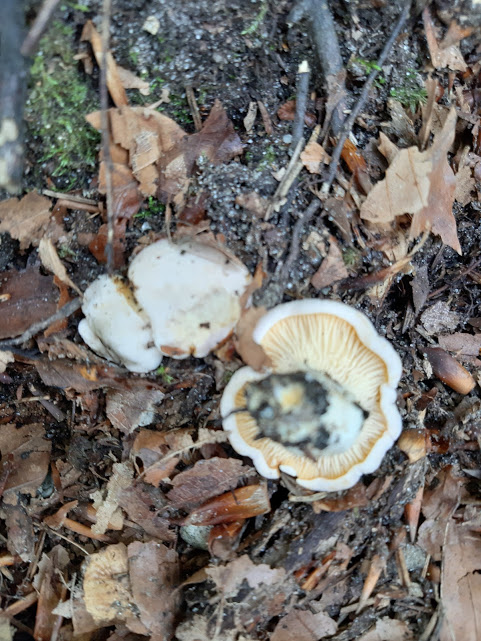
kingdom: Fungi
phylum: Basidiomycota
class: Agaricomycetes
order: Cantharellales
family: Hydnaceae
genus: Cantharellus
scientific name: Cantharellus pallens
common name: bleg kantarel
